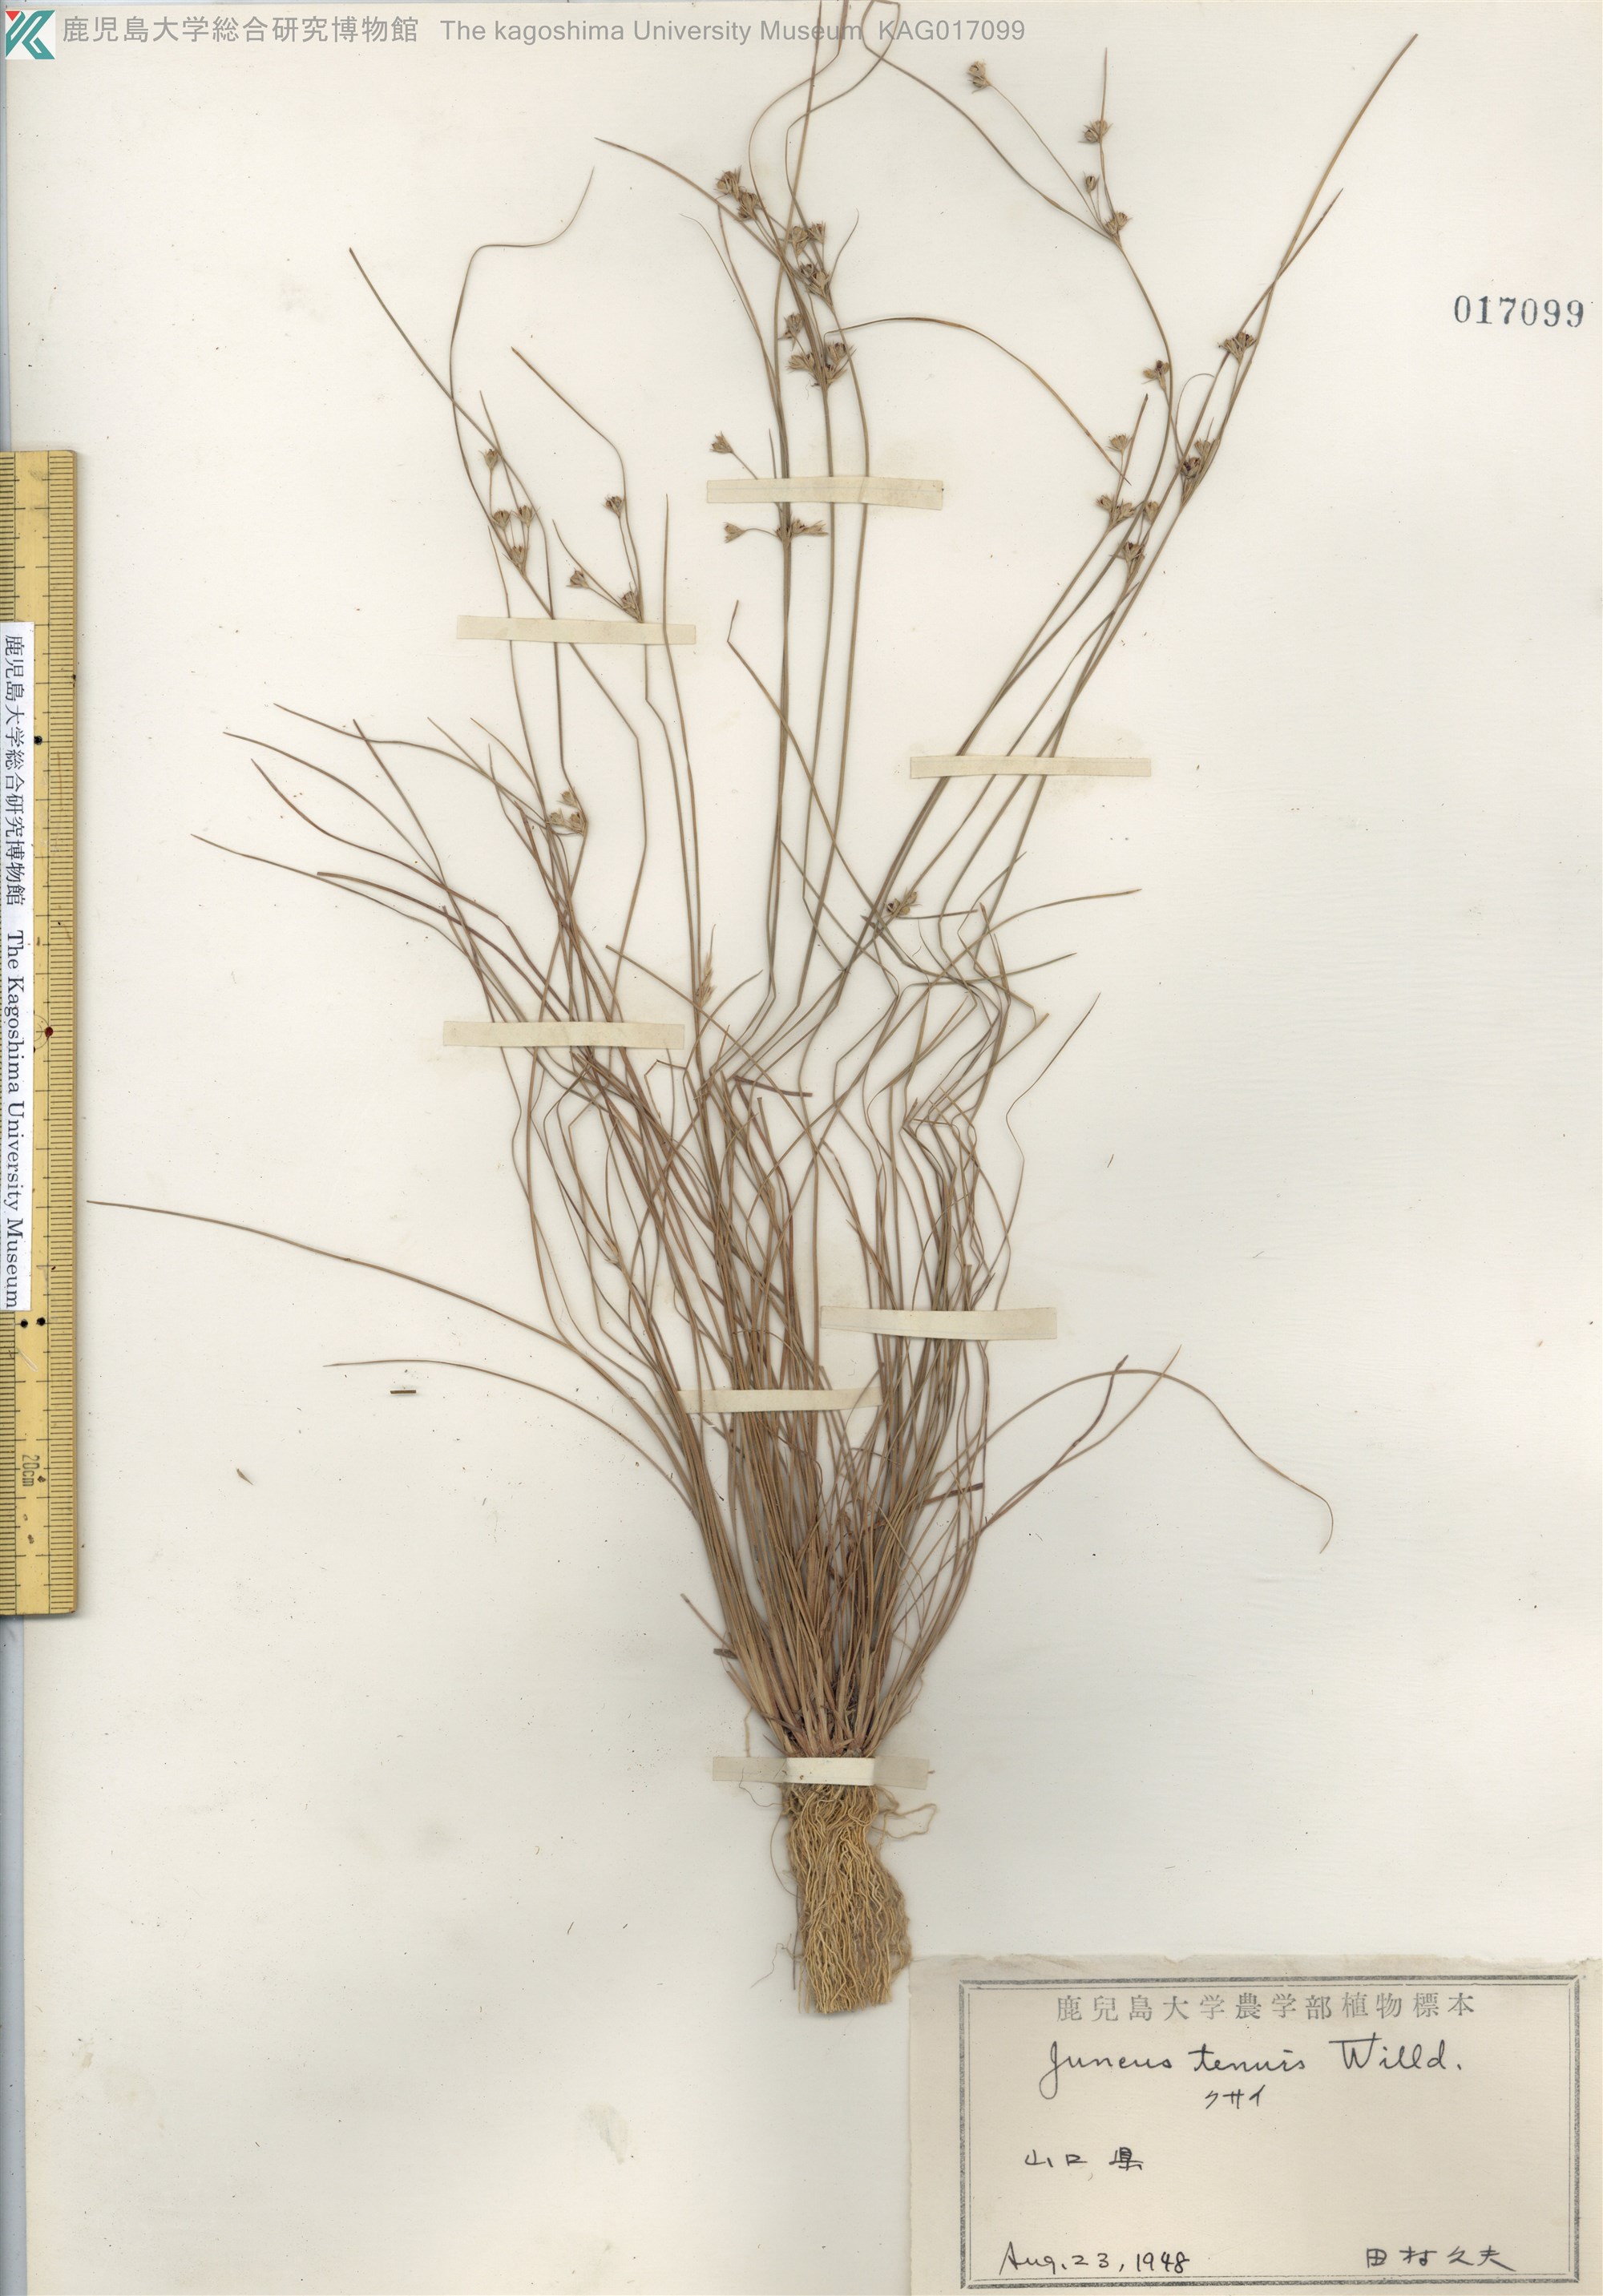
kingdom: Plantae
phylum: Tracheophyta
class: Liliopsida
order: Poales
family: Juncaceae
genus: Juncus
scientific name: Juncus tenuis
